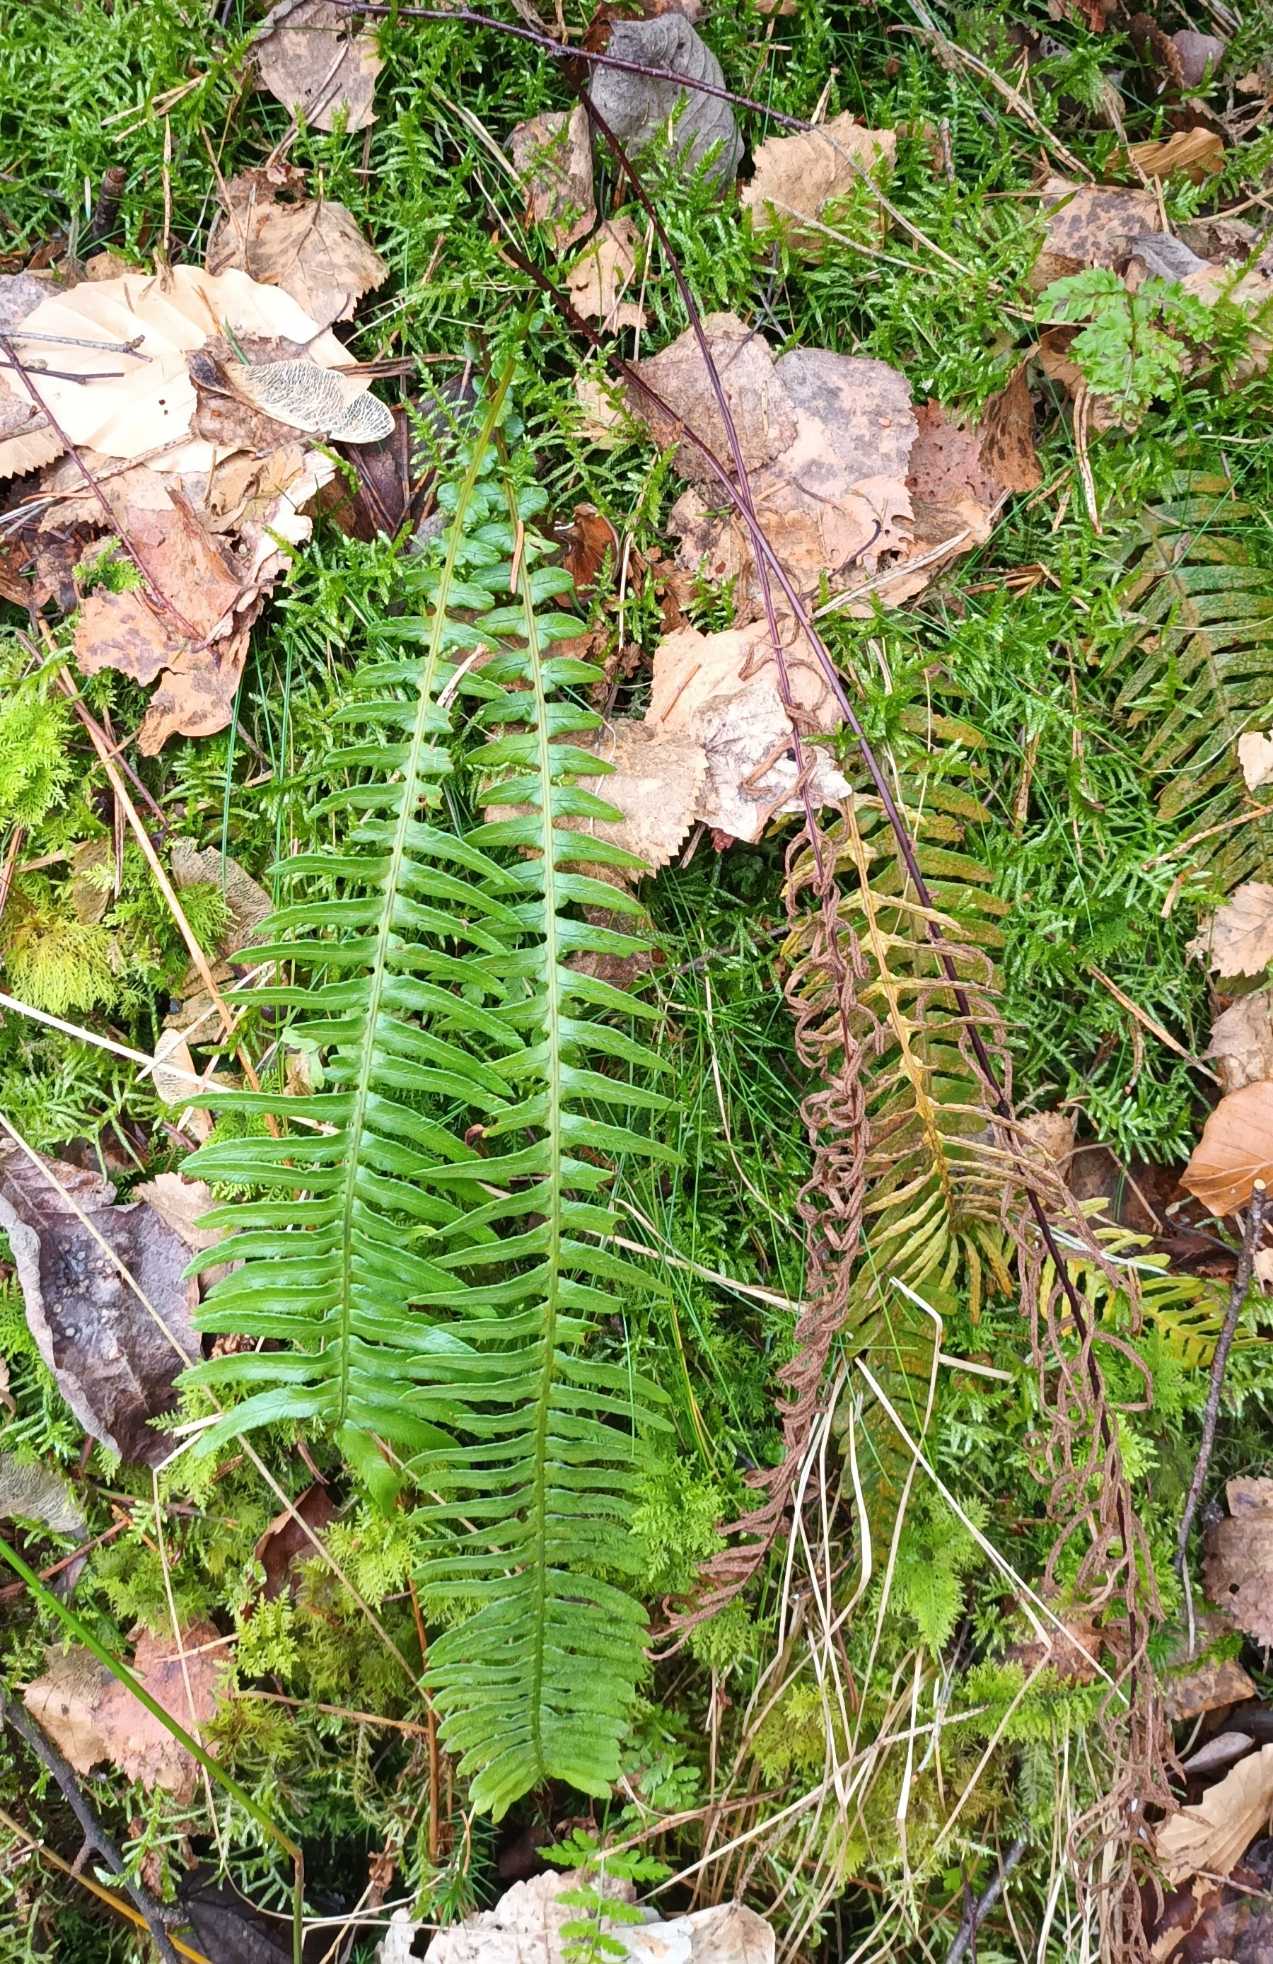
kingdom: Plantae
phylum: Tracheophyta
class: Polypodiopsida
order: Polypodiales
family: Blechnaceae
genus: Struthiopteris
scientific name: Struthiopteris spicant
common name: Kambregne
